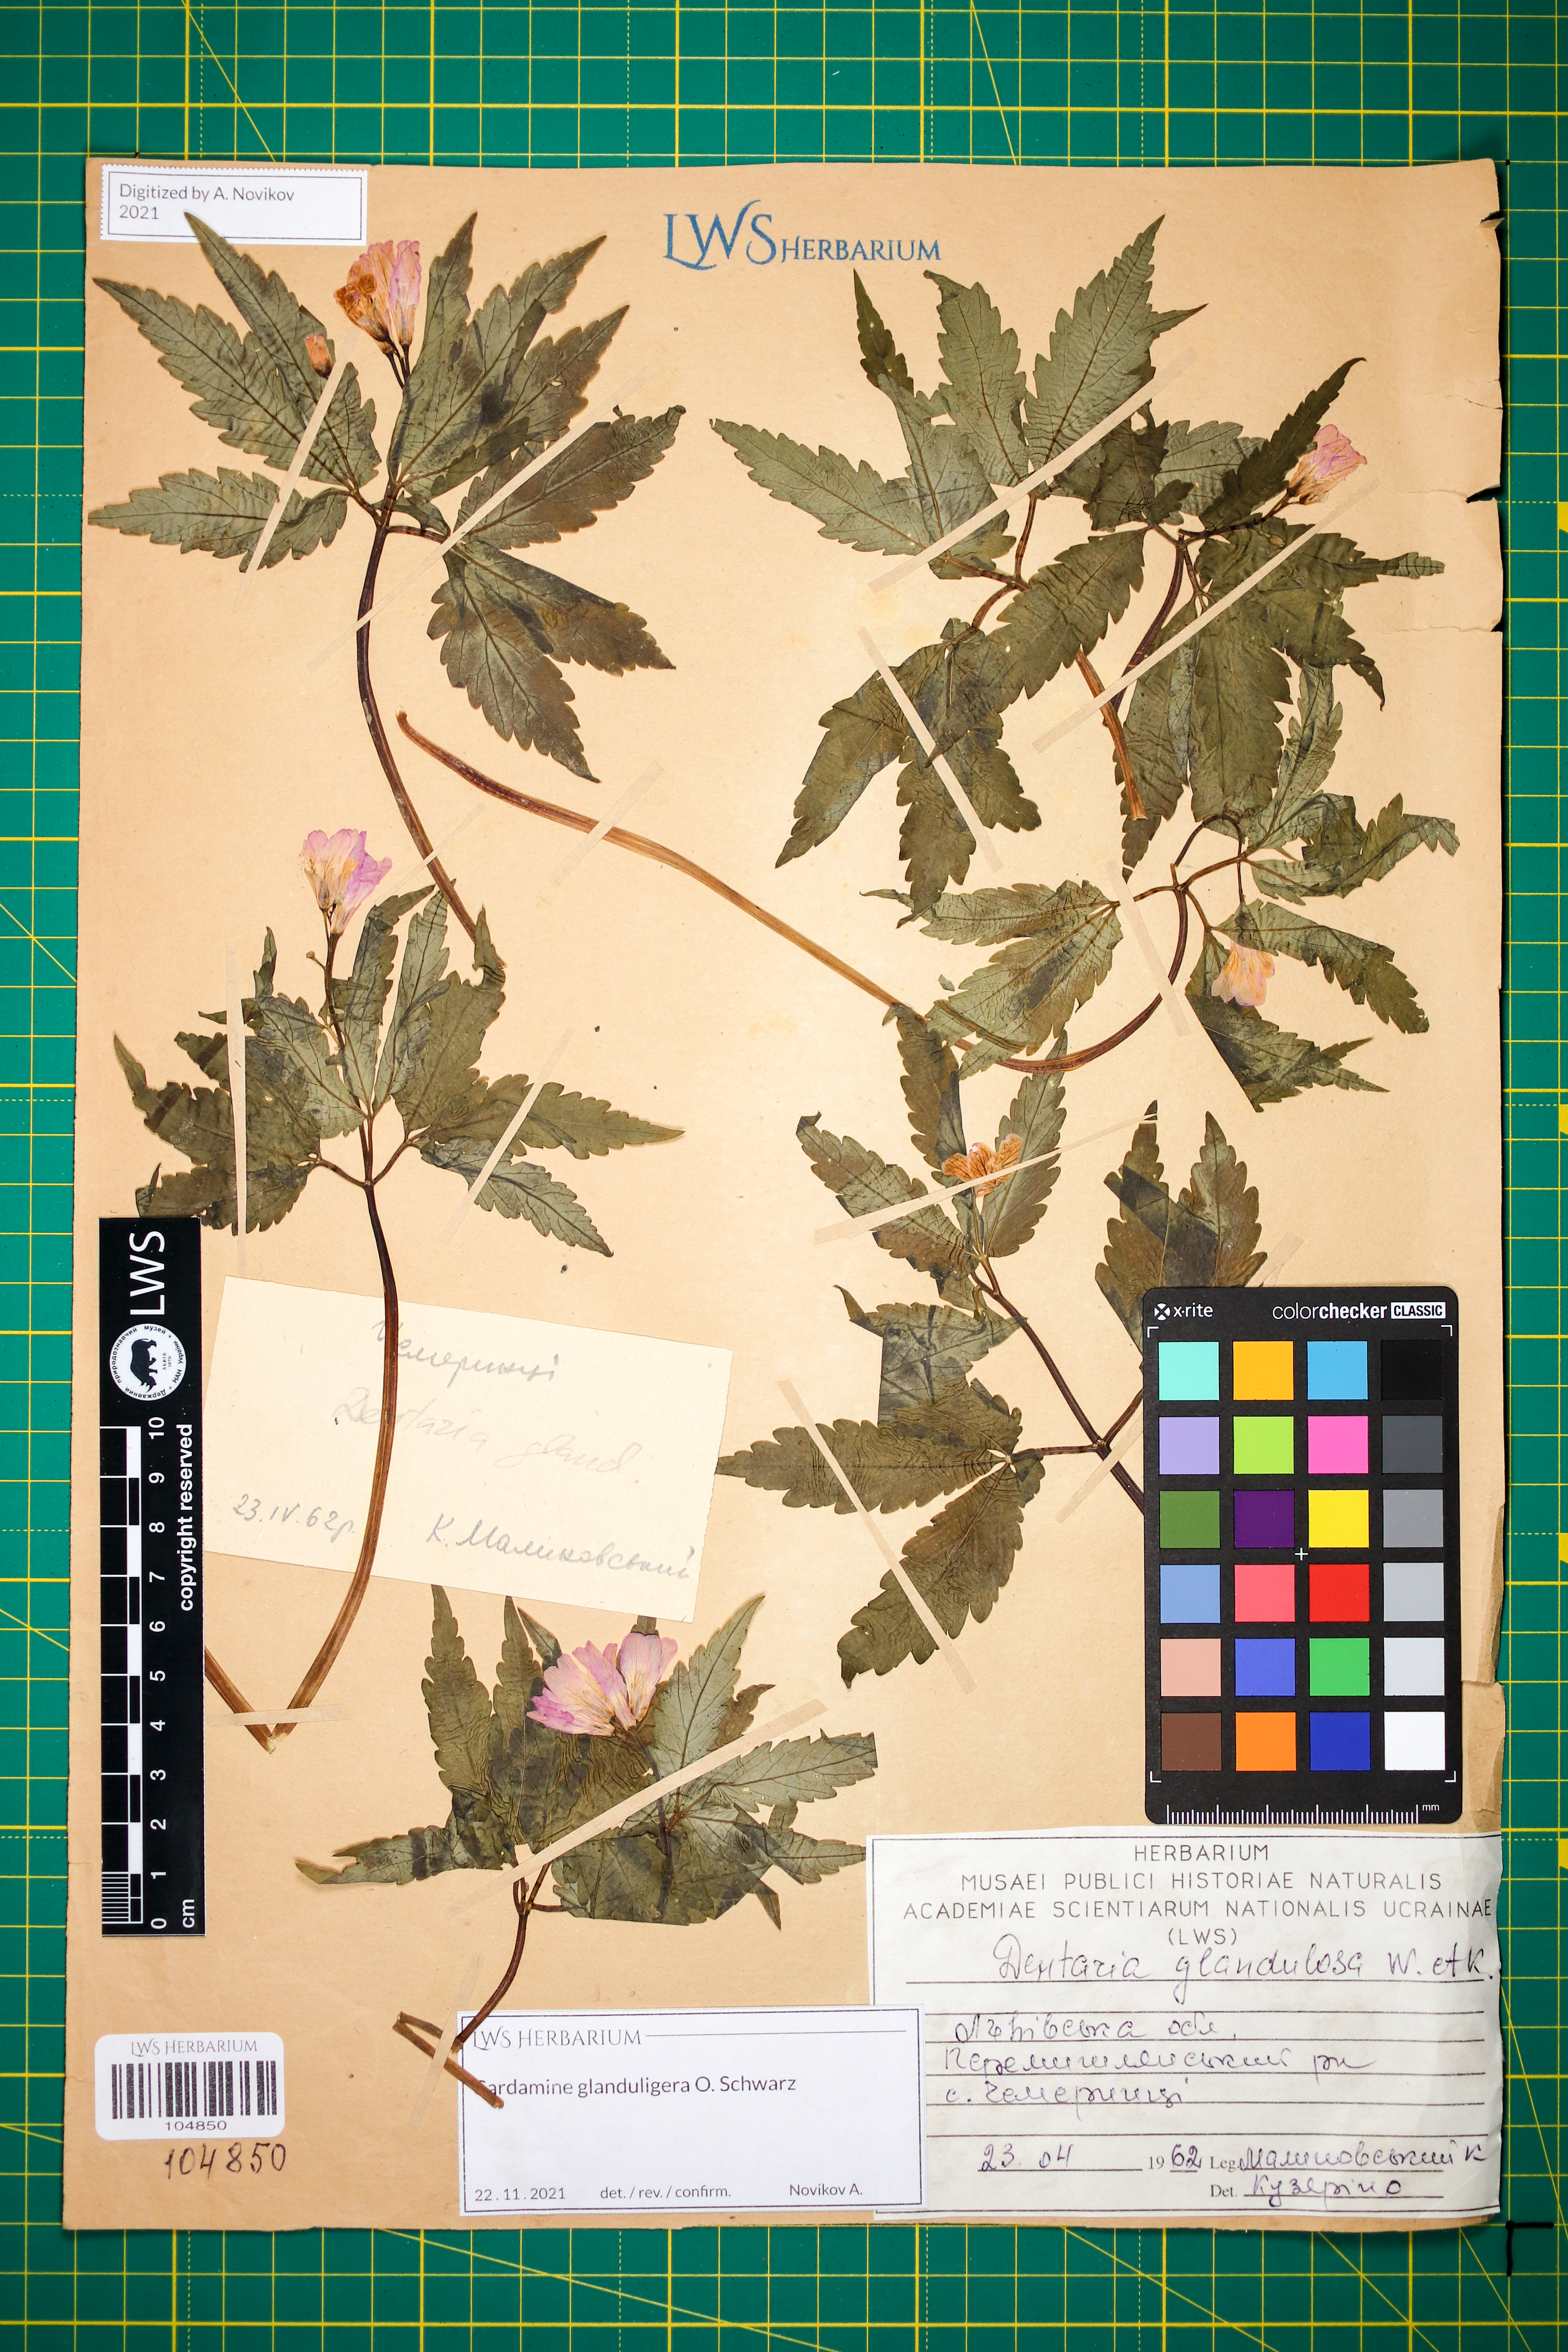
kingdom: Plantae
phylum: Tracheophyta
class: Magnoliopsida
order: Brassicales
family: Brassicaceae
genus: Cardamine
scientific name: Cardamine glanduligera
